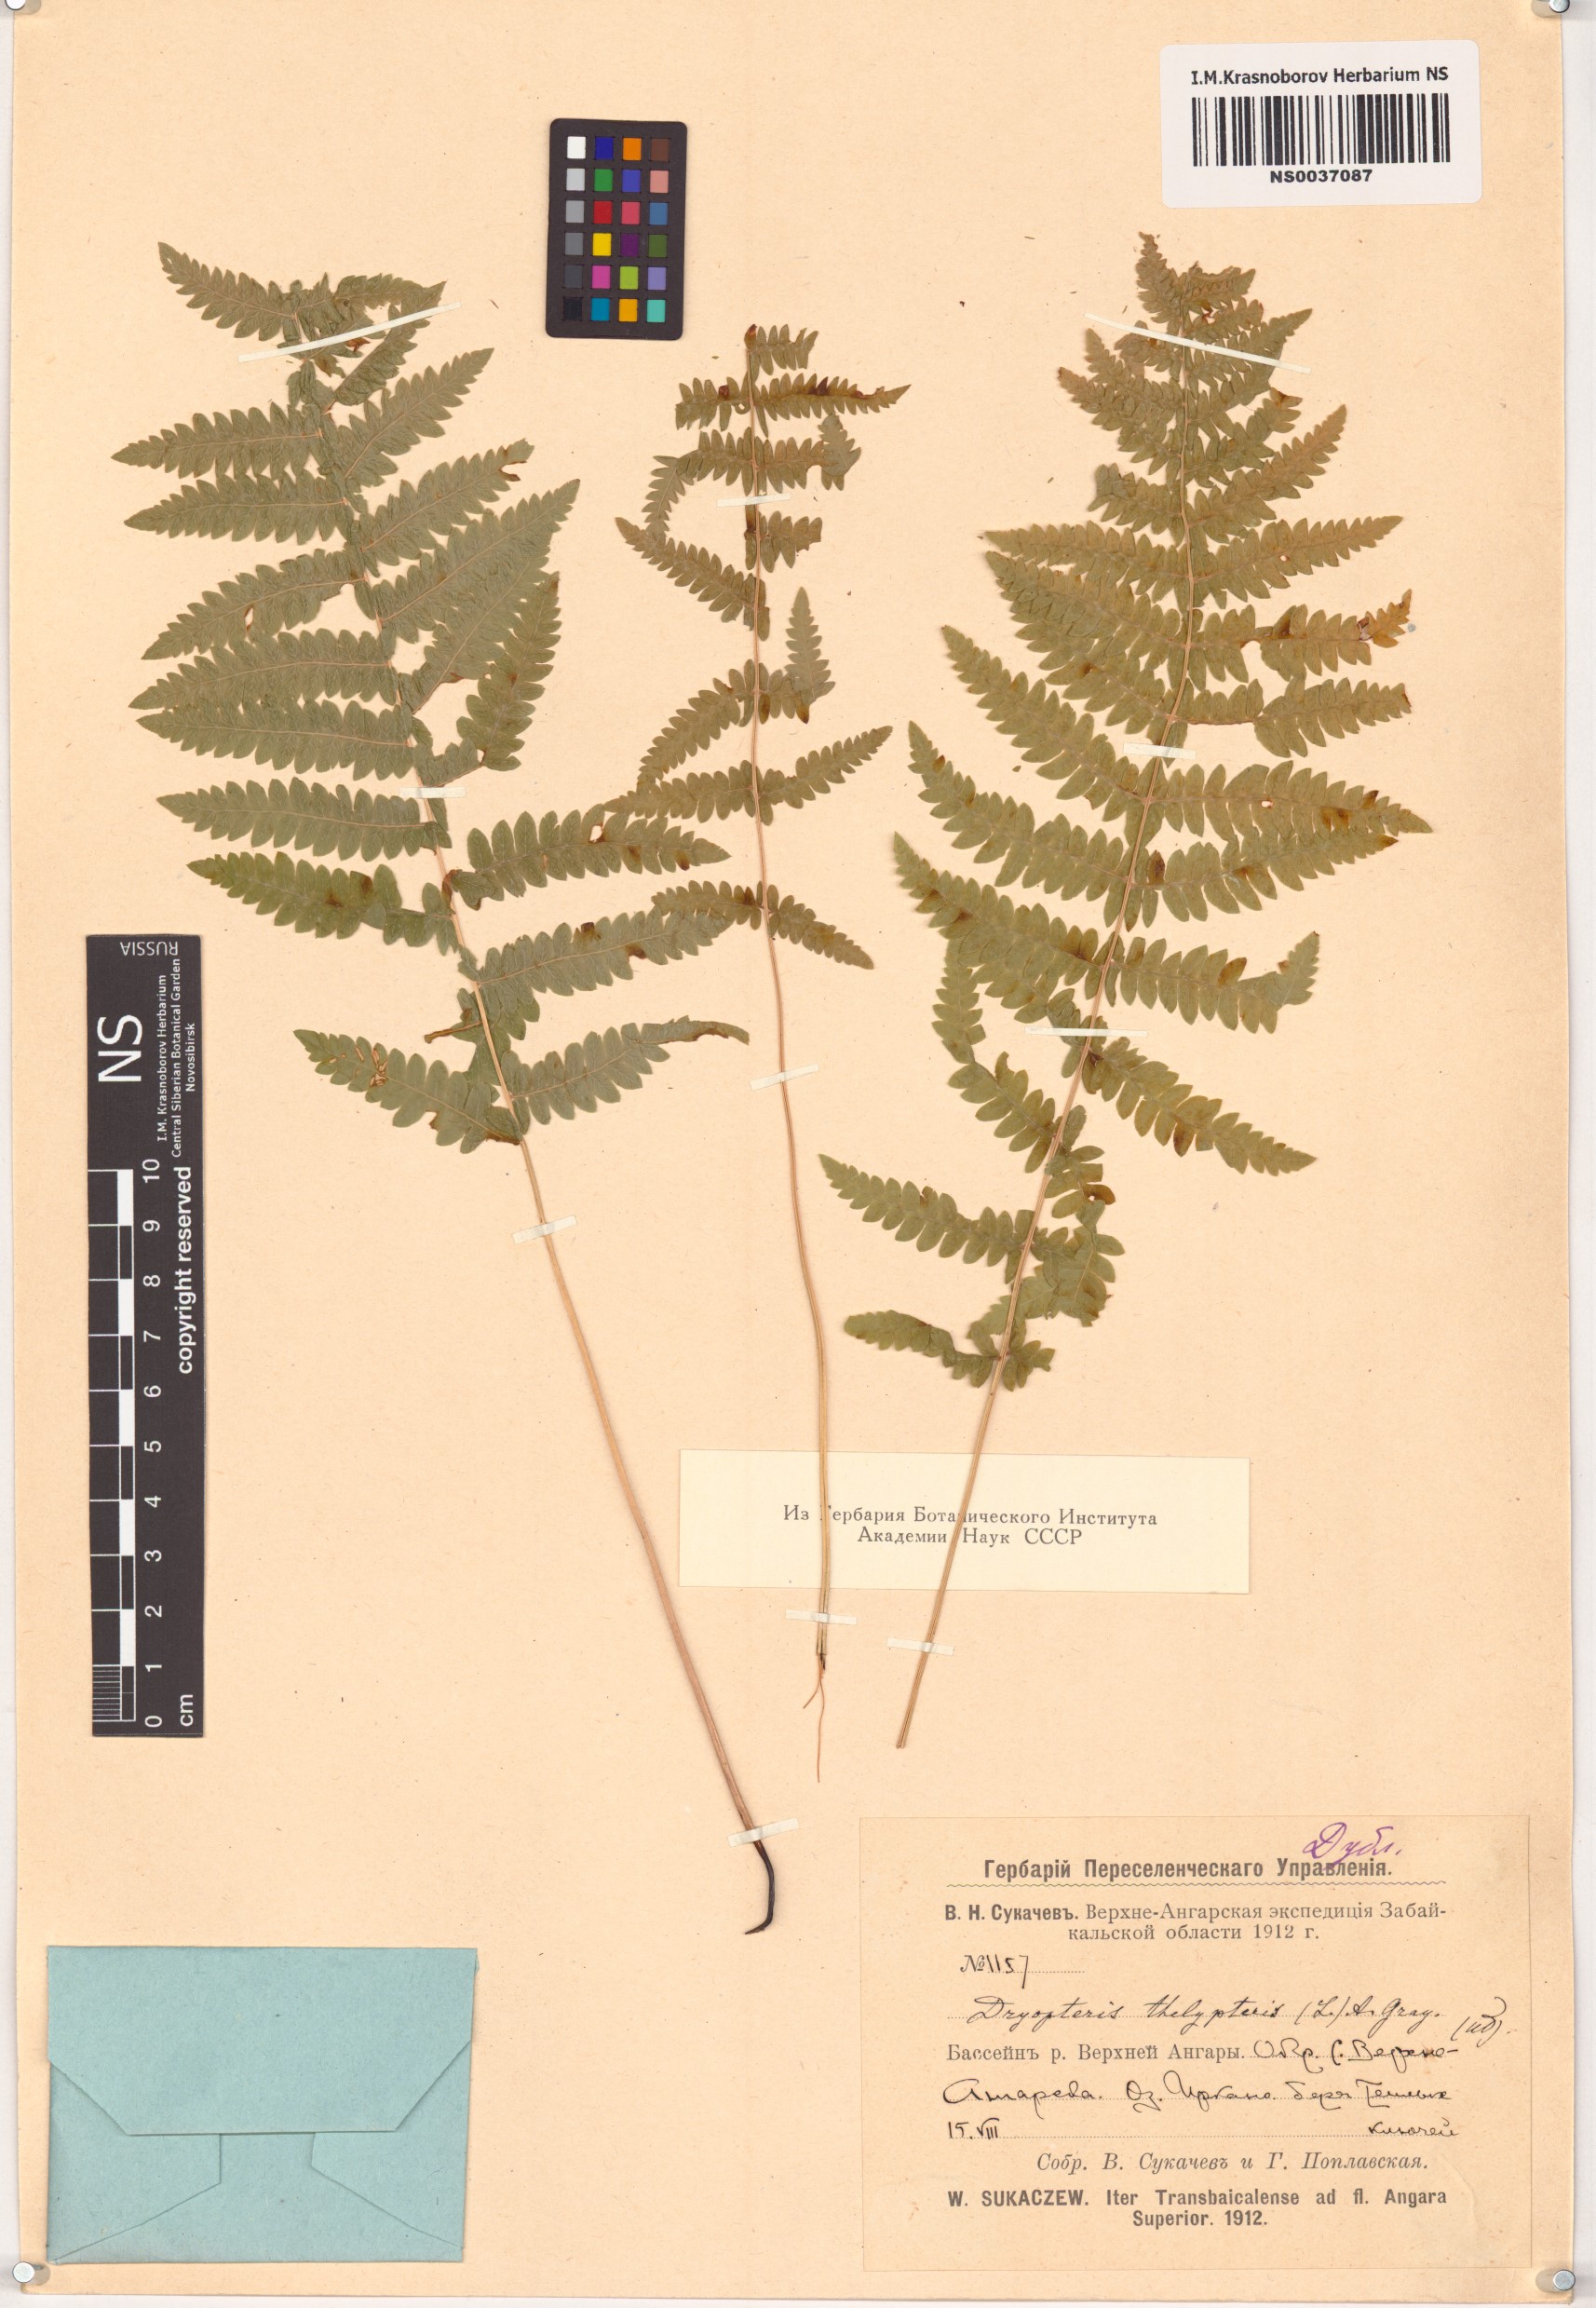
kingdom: Plantae
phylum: Tracheophyta
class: Polypodiopsida
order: Polypodiales
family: Thelypteridaceae
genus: Thelypteris
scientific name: Thelypteris palustris
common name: Marsh fern
